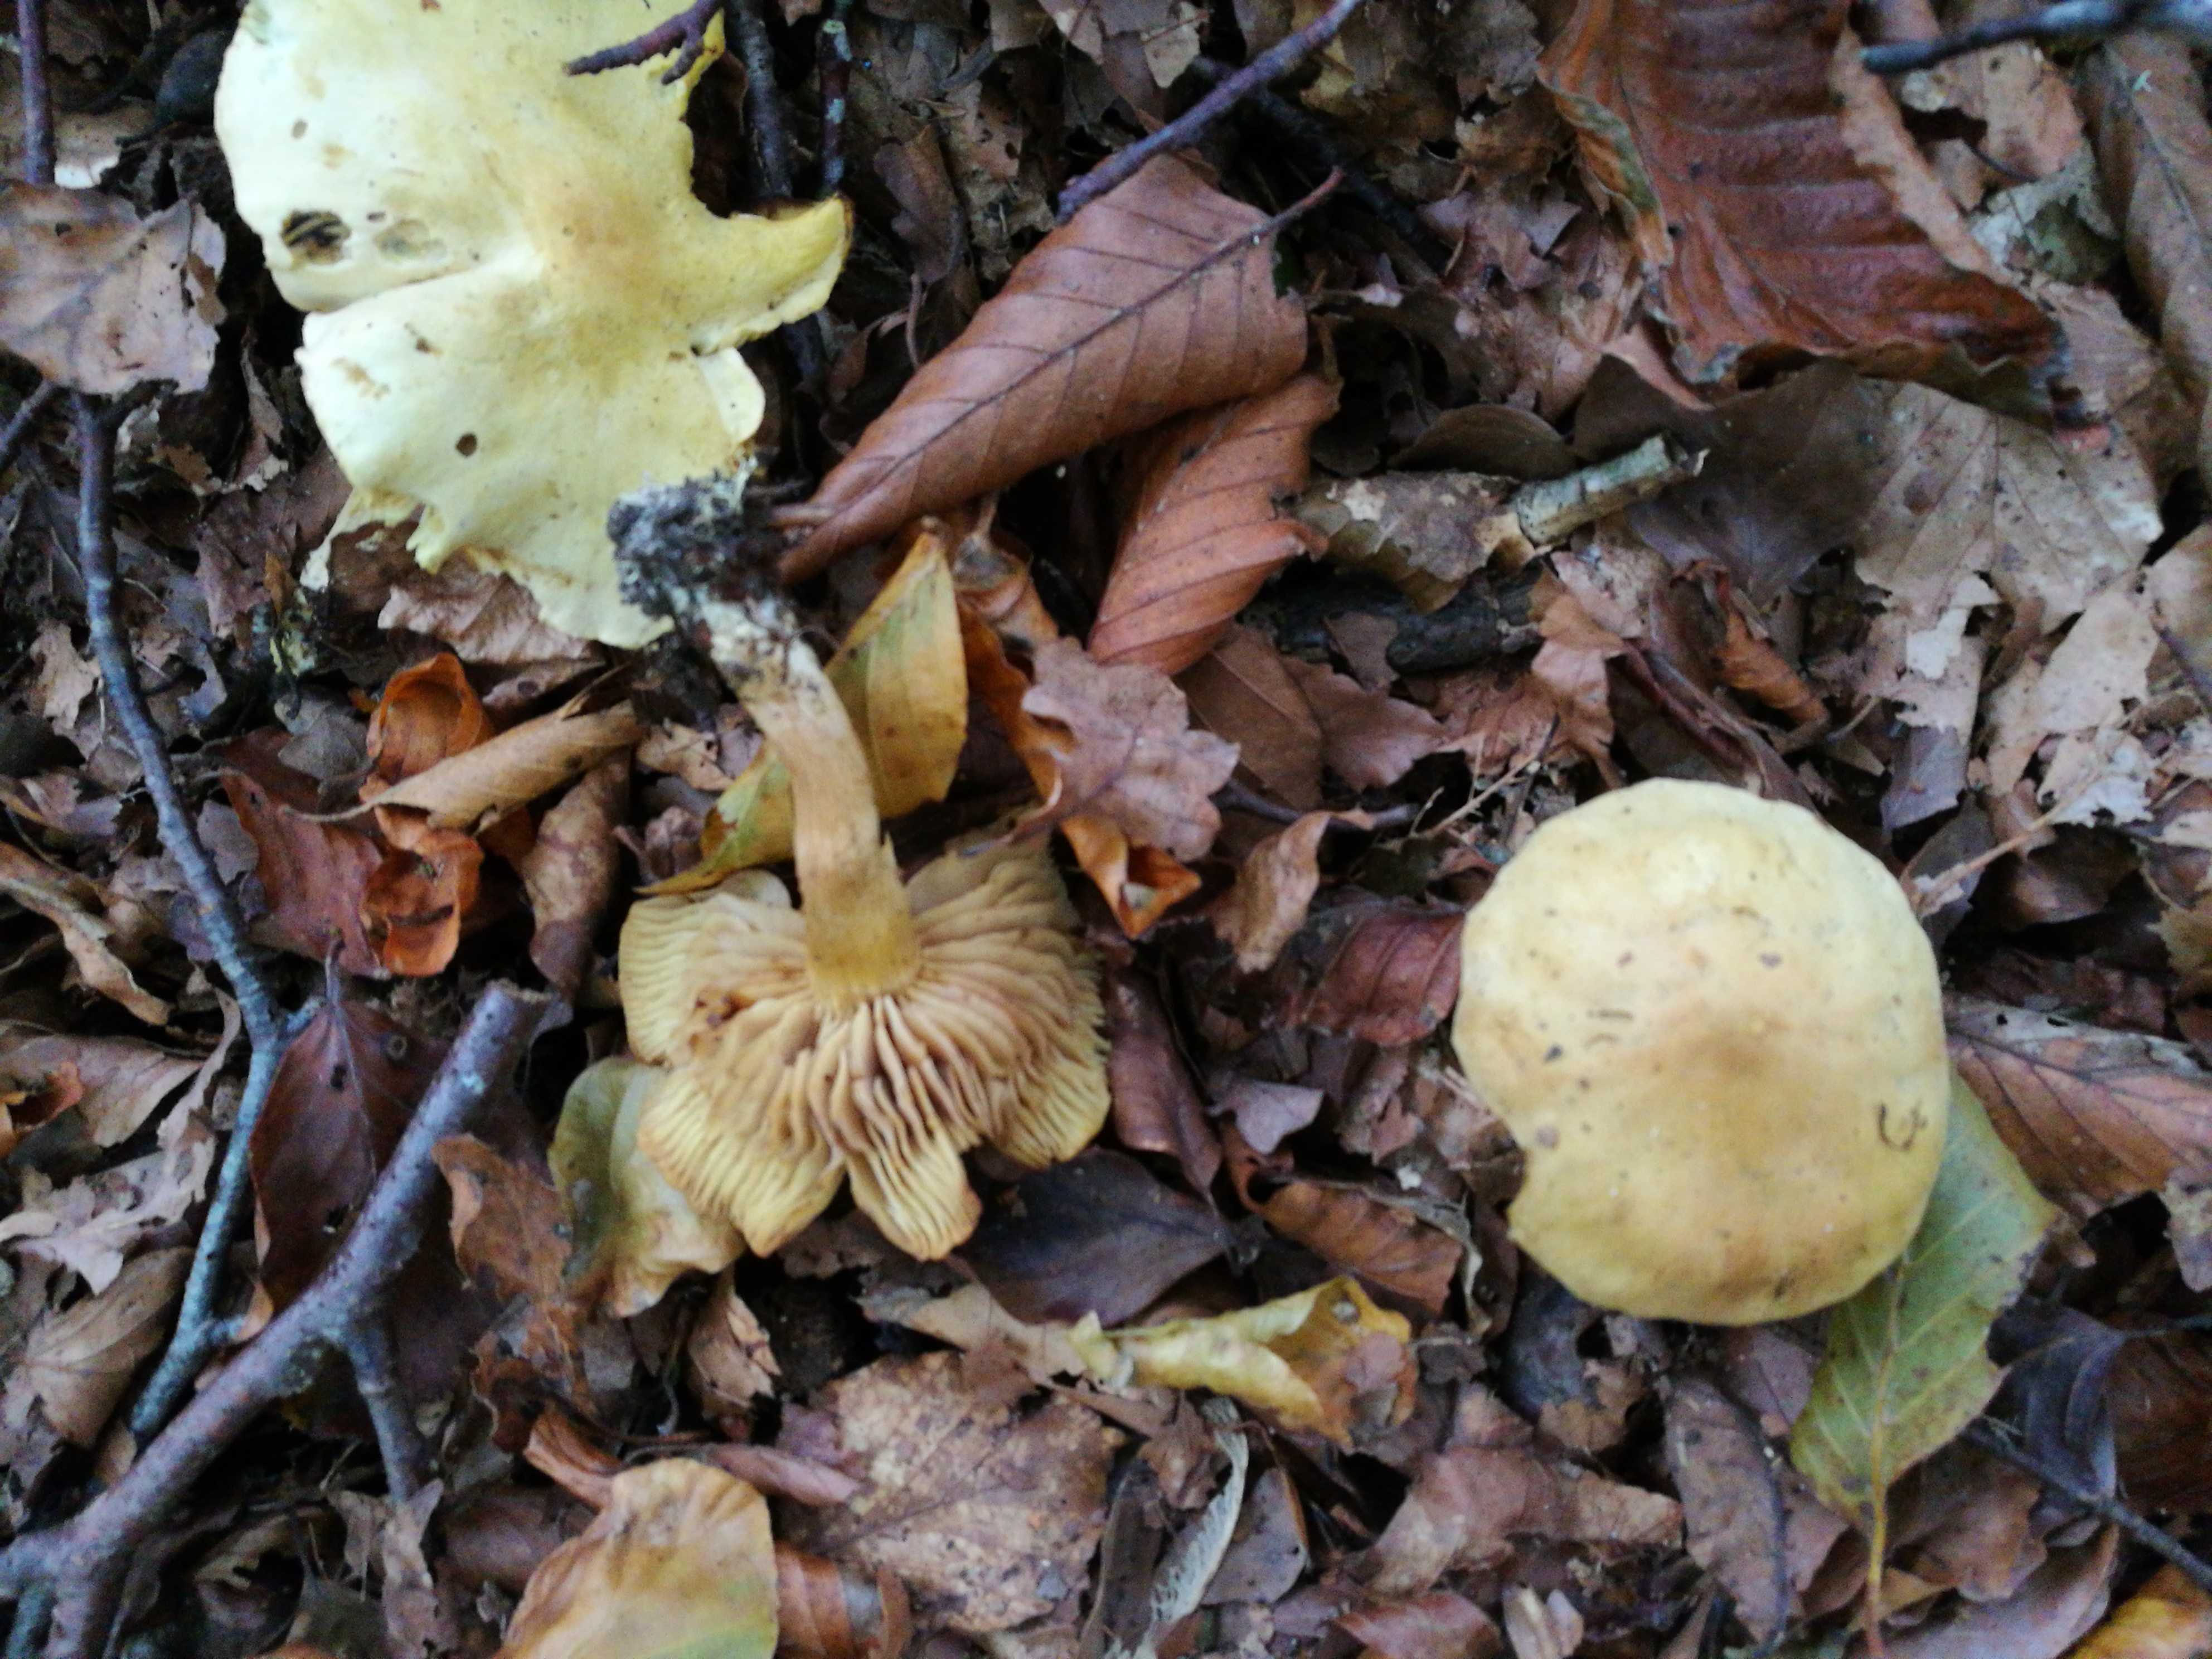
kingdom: Fungi
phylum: Basidiomycota
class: Agaricomycetes
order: Agaricales
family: Tricholomataceae
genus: Tricholoma
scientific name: Tricholoma sulphureum
